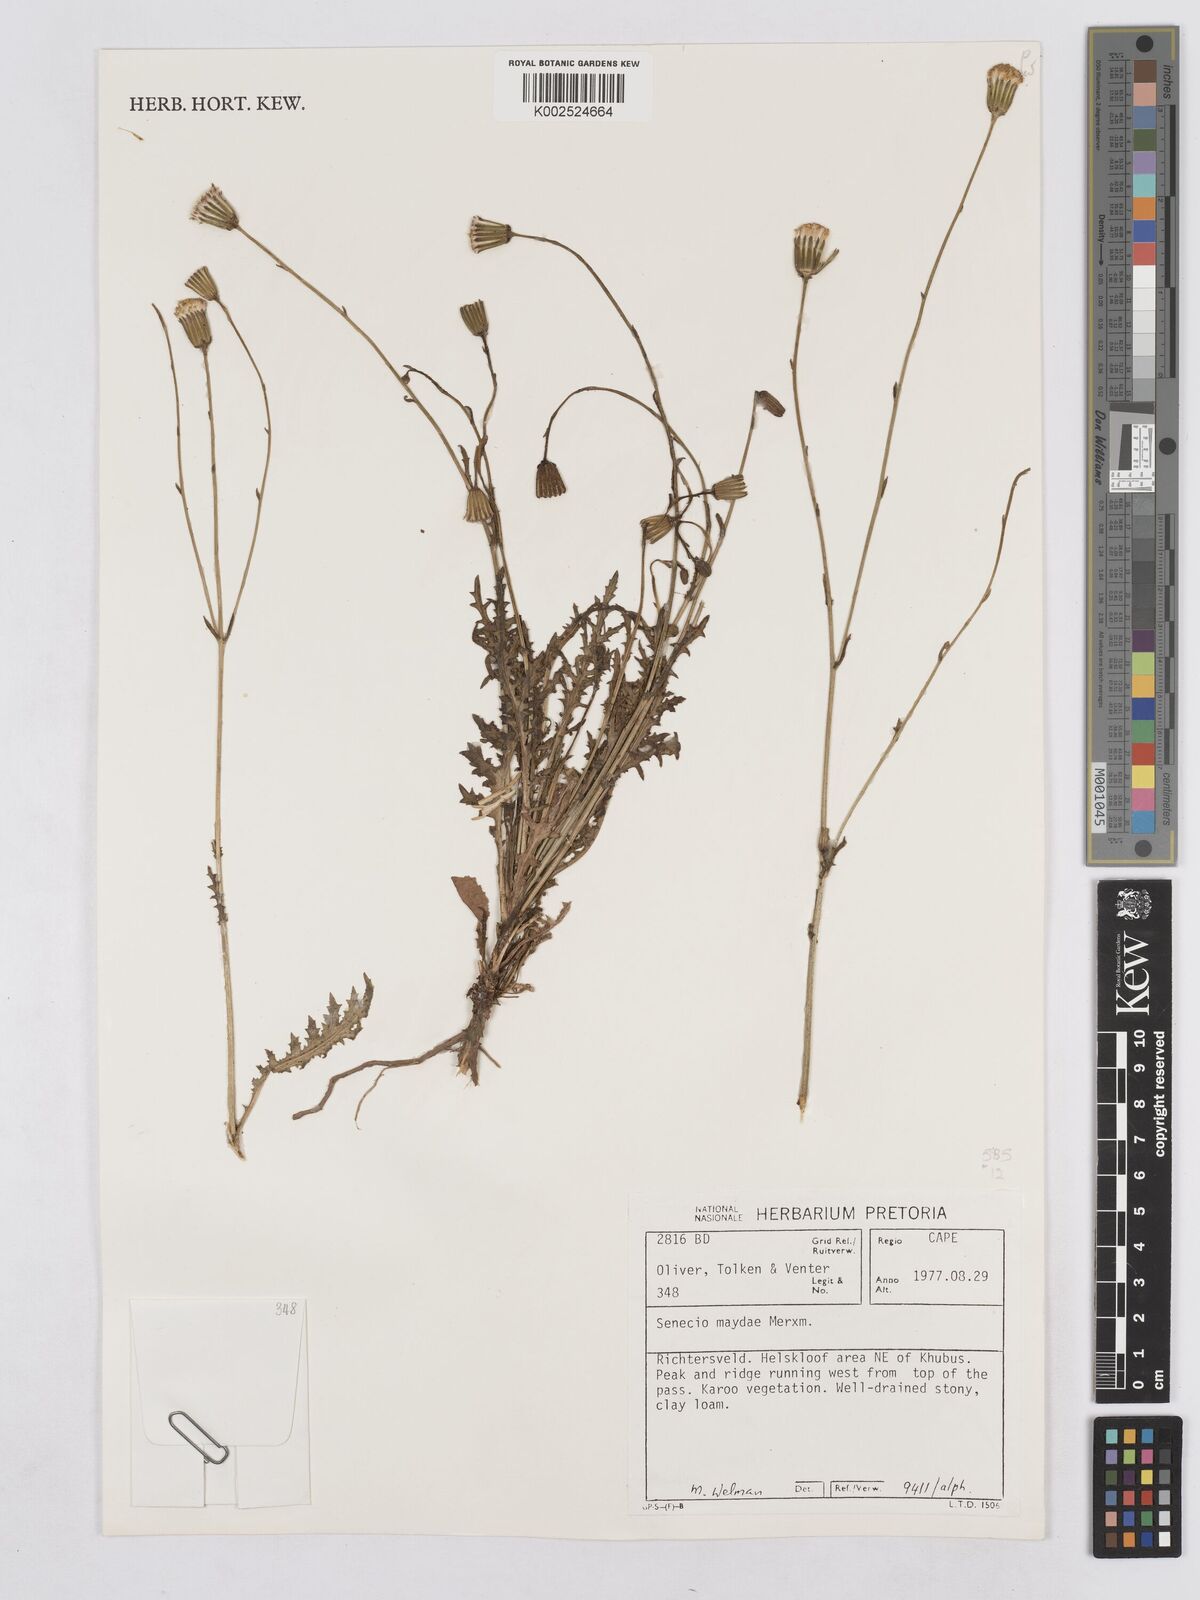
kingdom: Plantae
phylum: Tracheophyta
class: Magnoliopsida
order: Asterales
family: Asteraceae
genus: Senecio
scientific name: Senecio maydae
